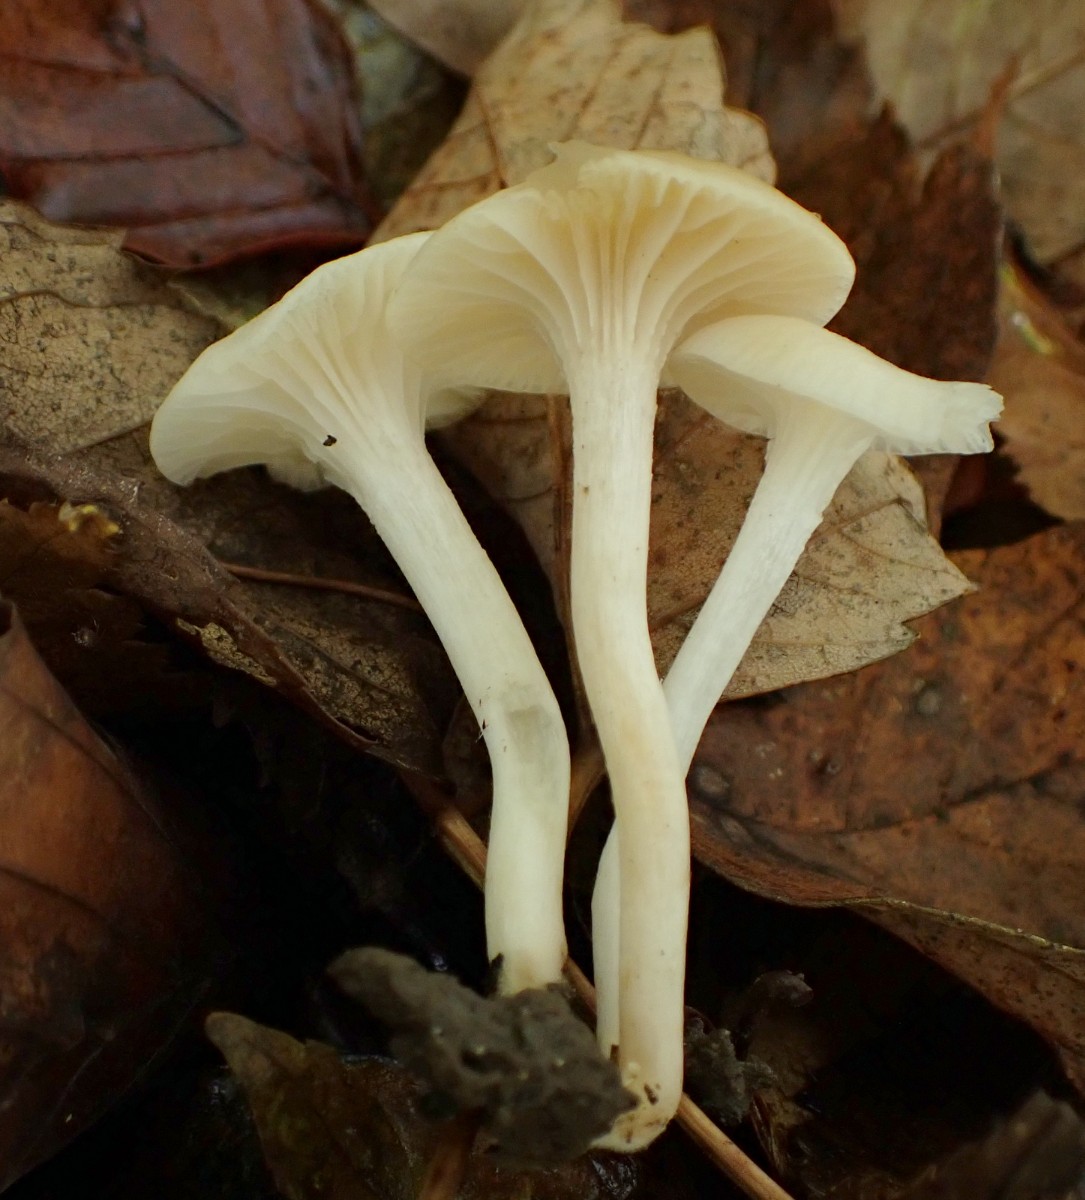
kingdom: Fungi
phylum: Basidiomycota
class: Agaricomycetes
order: Agaricales
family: Hygrophoraceae
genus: Cuphophyllus
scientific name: Cuphophyllus russocoriaceus
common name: ruslæder-vokshat
